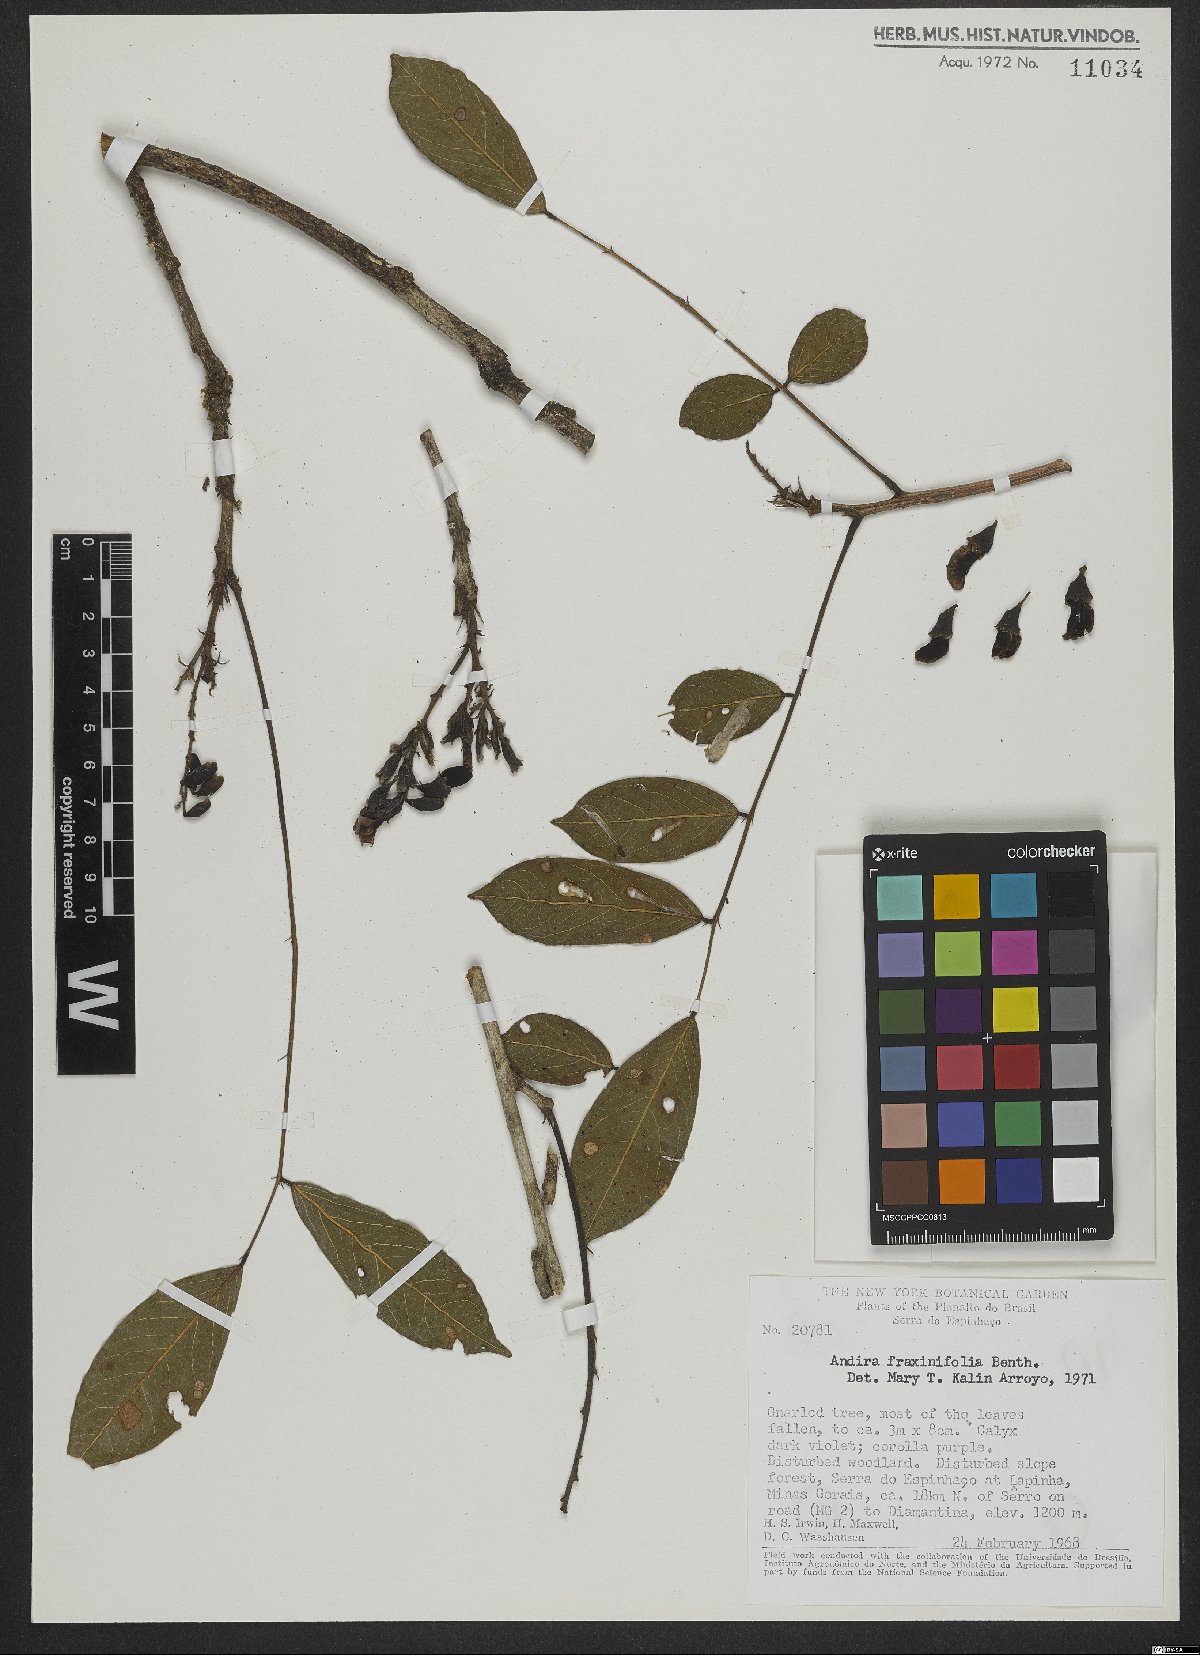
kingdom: Plantae
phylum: Tracheophyta
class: Magnoliopsida
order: Fabales
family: Fabaceae
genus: Andira
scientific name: Andira fraxinifolia
